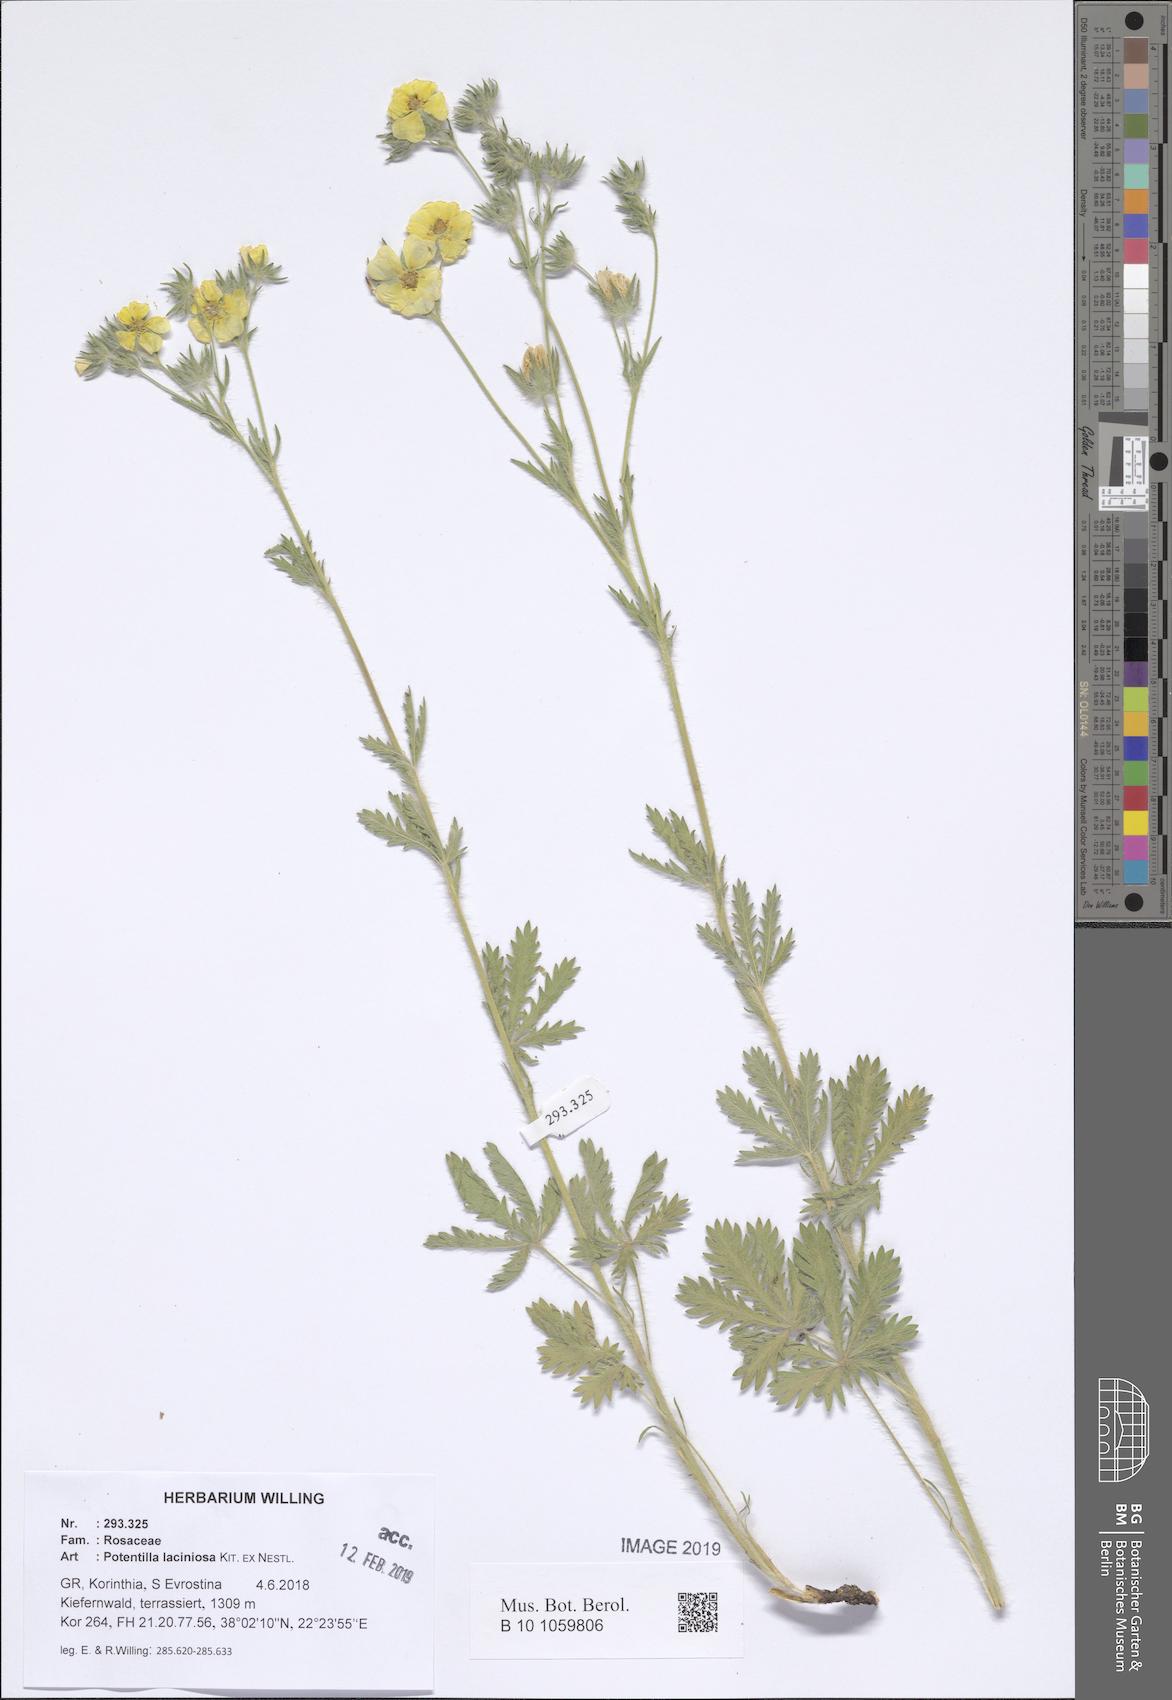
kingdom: Plantae
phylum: Tracheophyta
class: Magnoliopsida
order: Rosales
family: Rosaceae
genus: Potentilla
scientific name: Potentilla recta
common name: Sulphur cinquefoil
